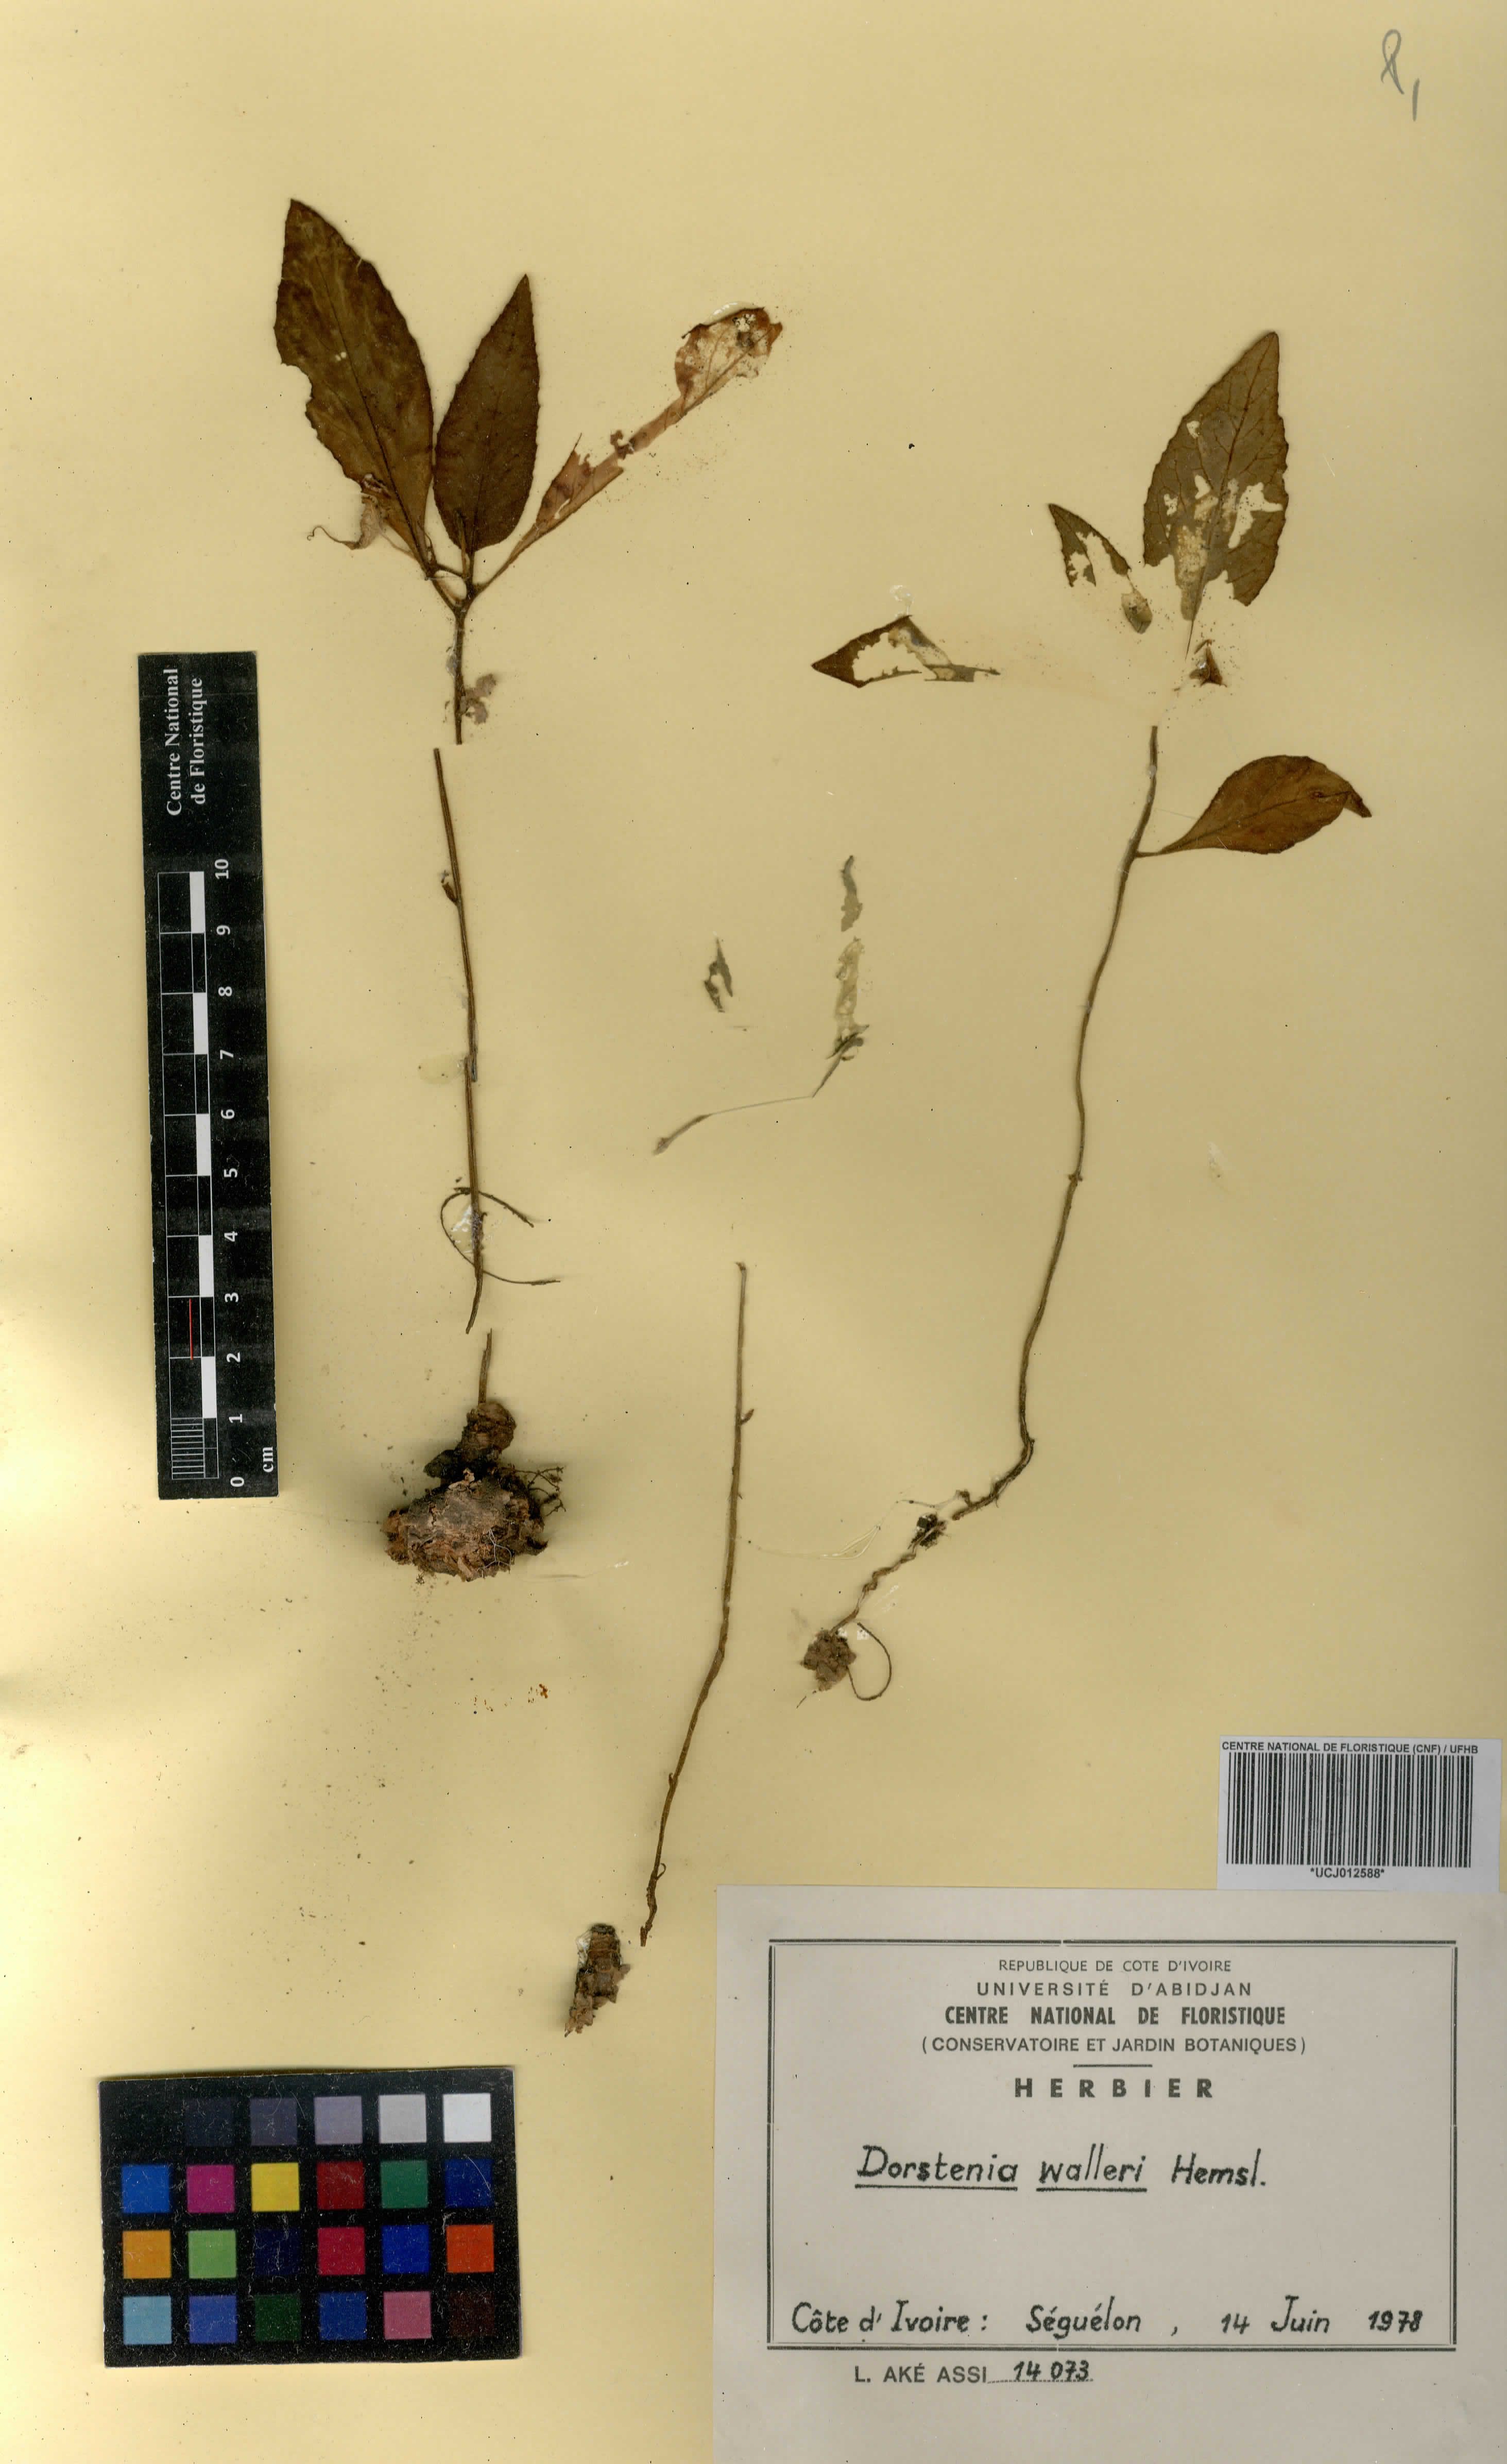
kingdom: Plantae
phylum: Tracheophyta
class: Magnoliopsida
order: Rosales
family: Moraceae
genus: Dorstenia
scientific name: Dorstenia cuspidata
